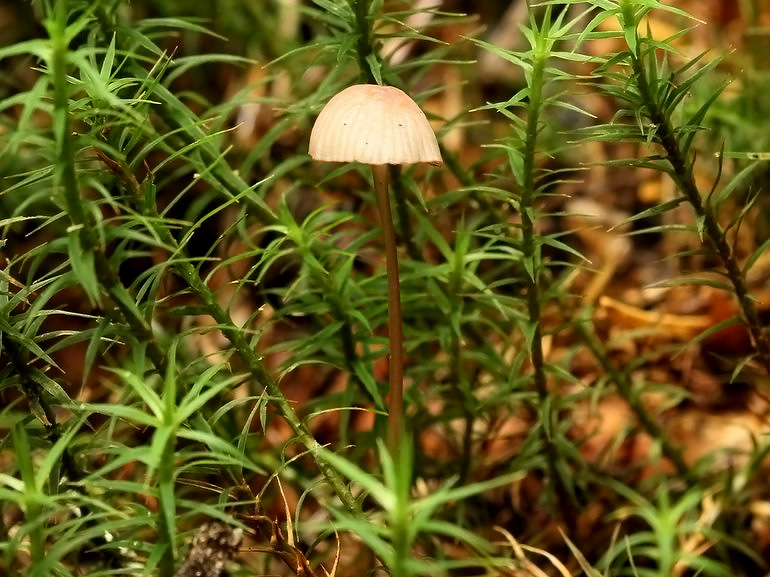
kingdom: Fungi
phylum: Basidiomycota
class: Agaricomycetes
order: Agaricales
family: Mycenaceae
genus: Mycena
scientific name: Mycena sanguinolenta
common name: rødmælket huesvamp
